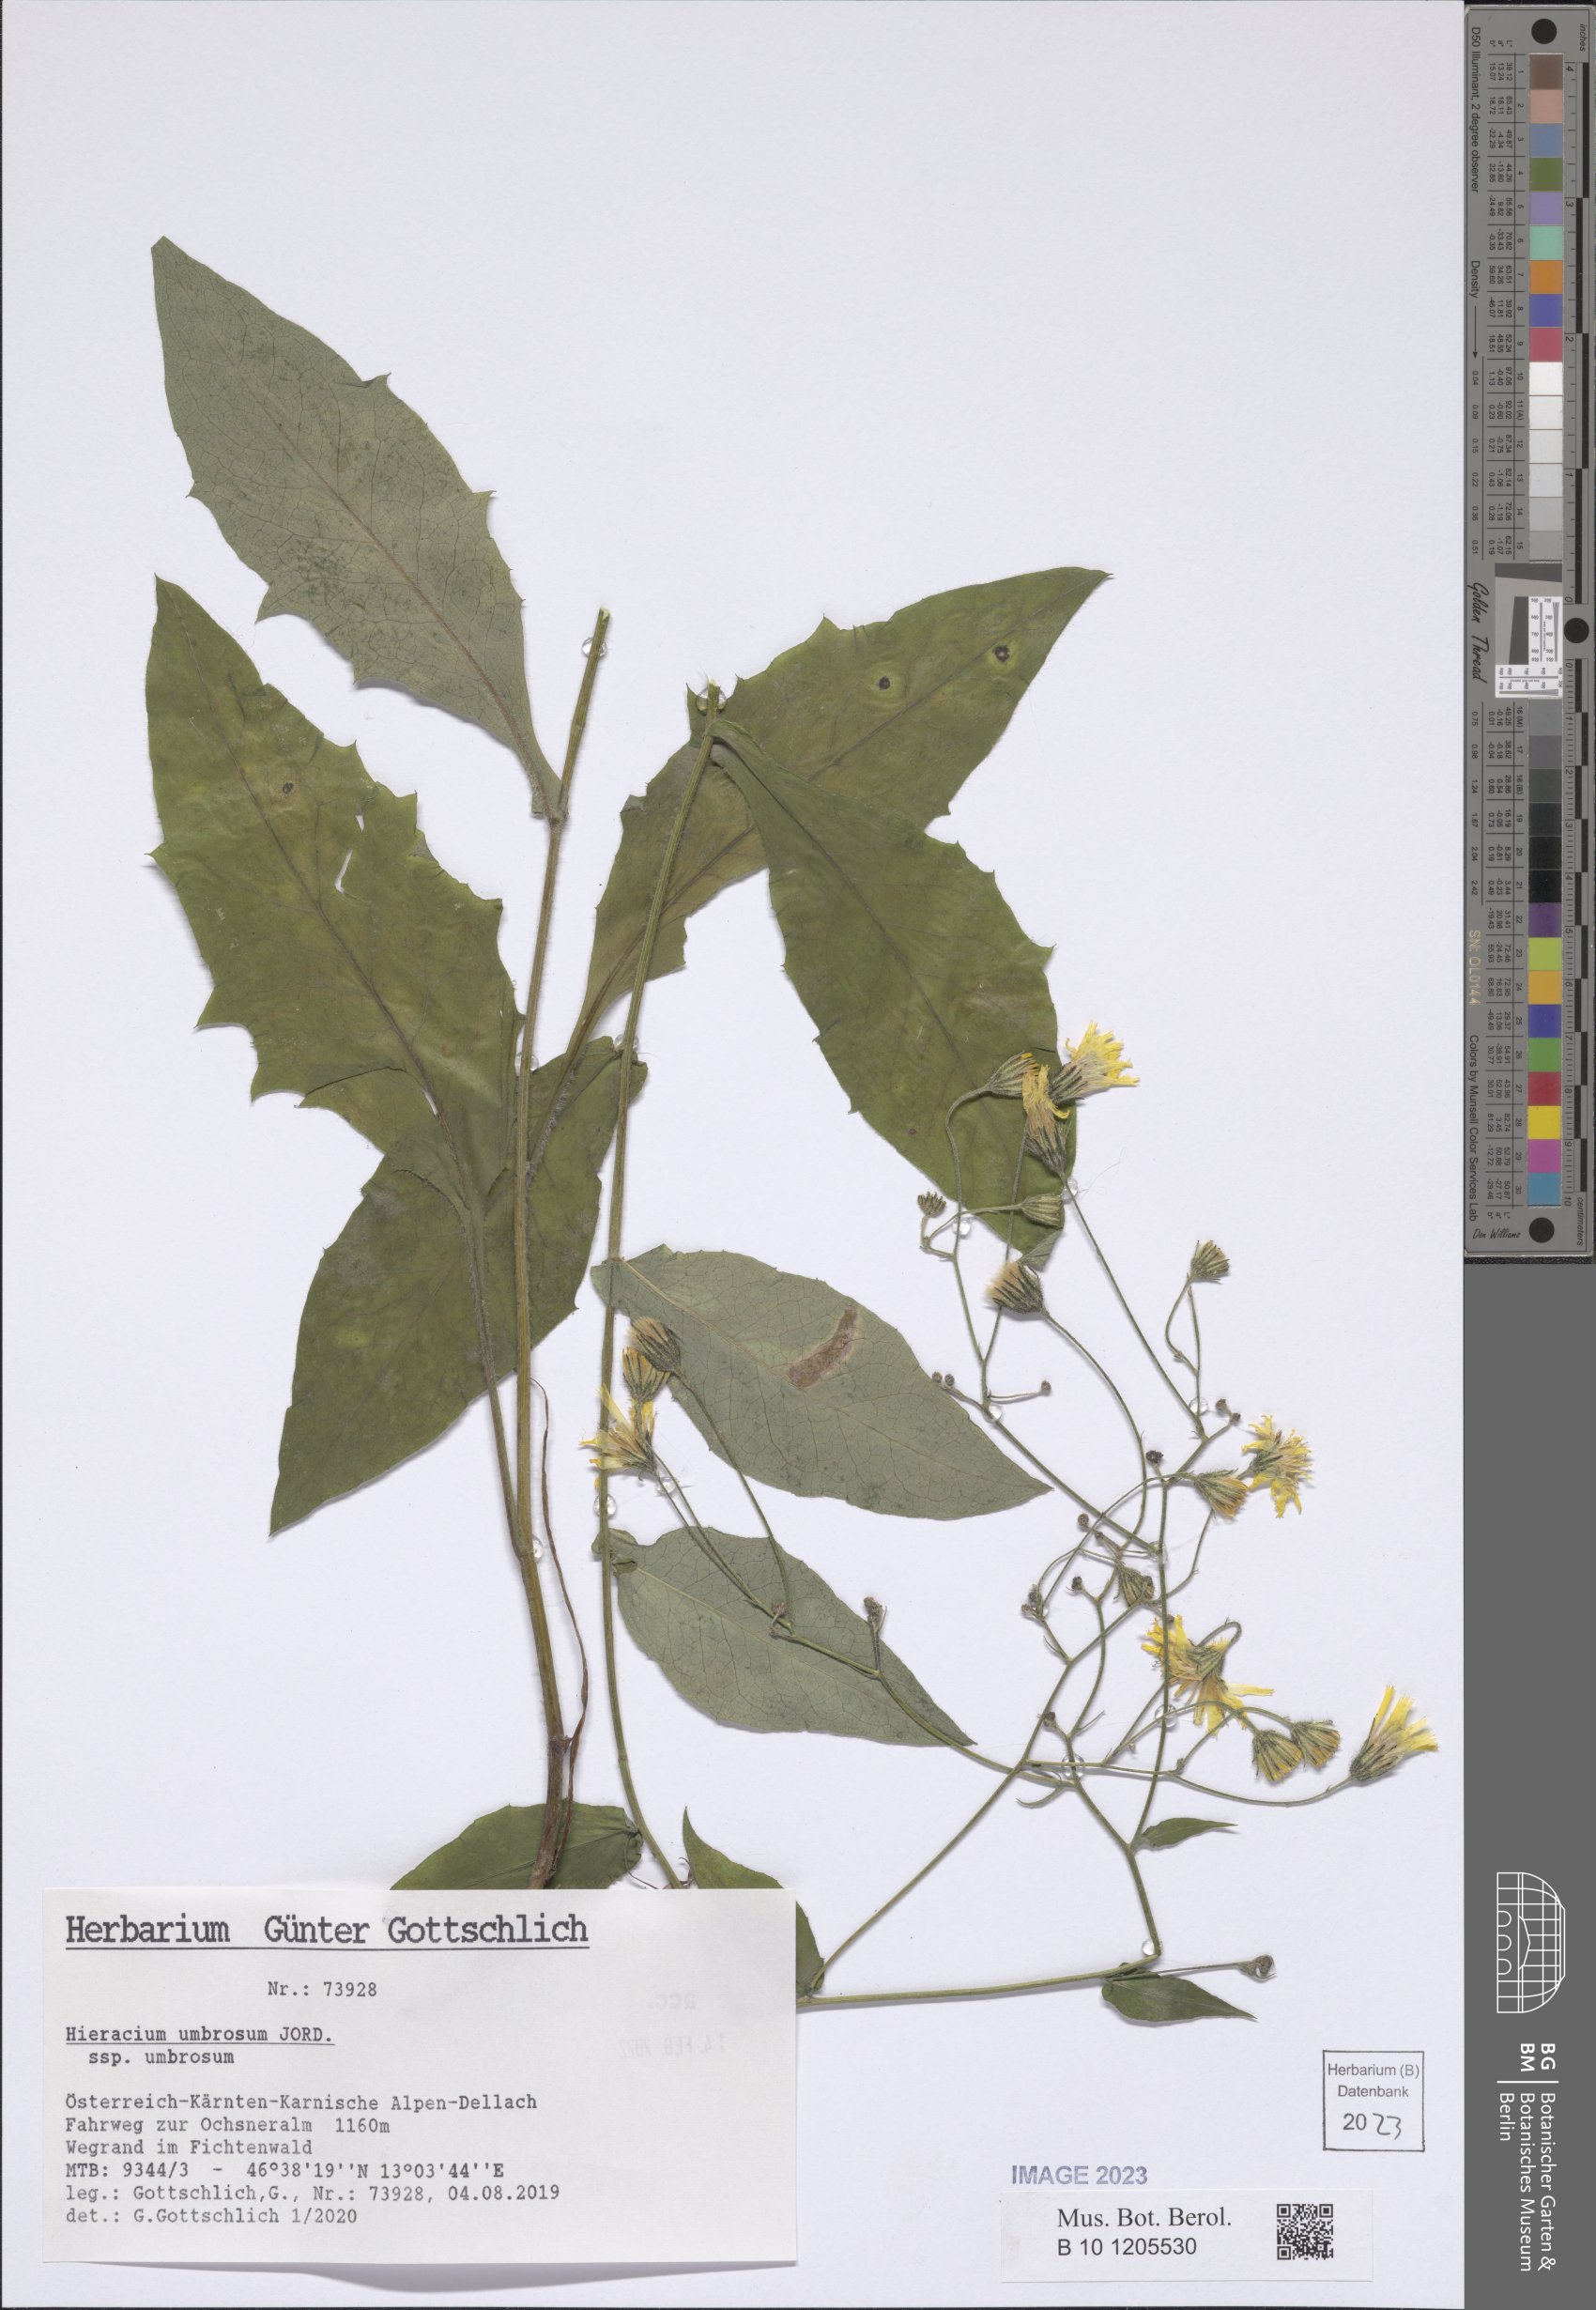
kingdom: Plantae
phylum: Tracheophyta
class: Magnoliopsida
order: Asterales
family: Asteraceae
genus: Hieracium
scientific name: Hieracium umbrosum
